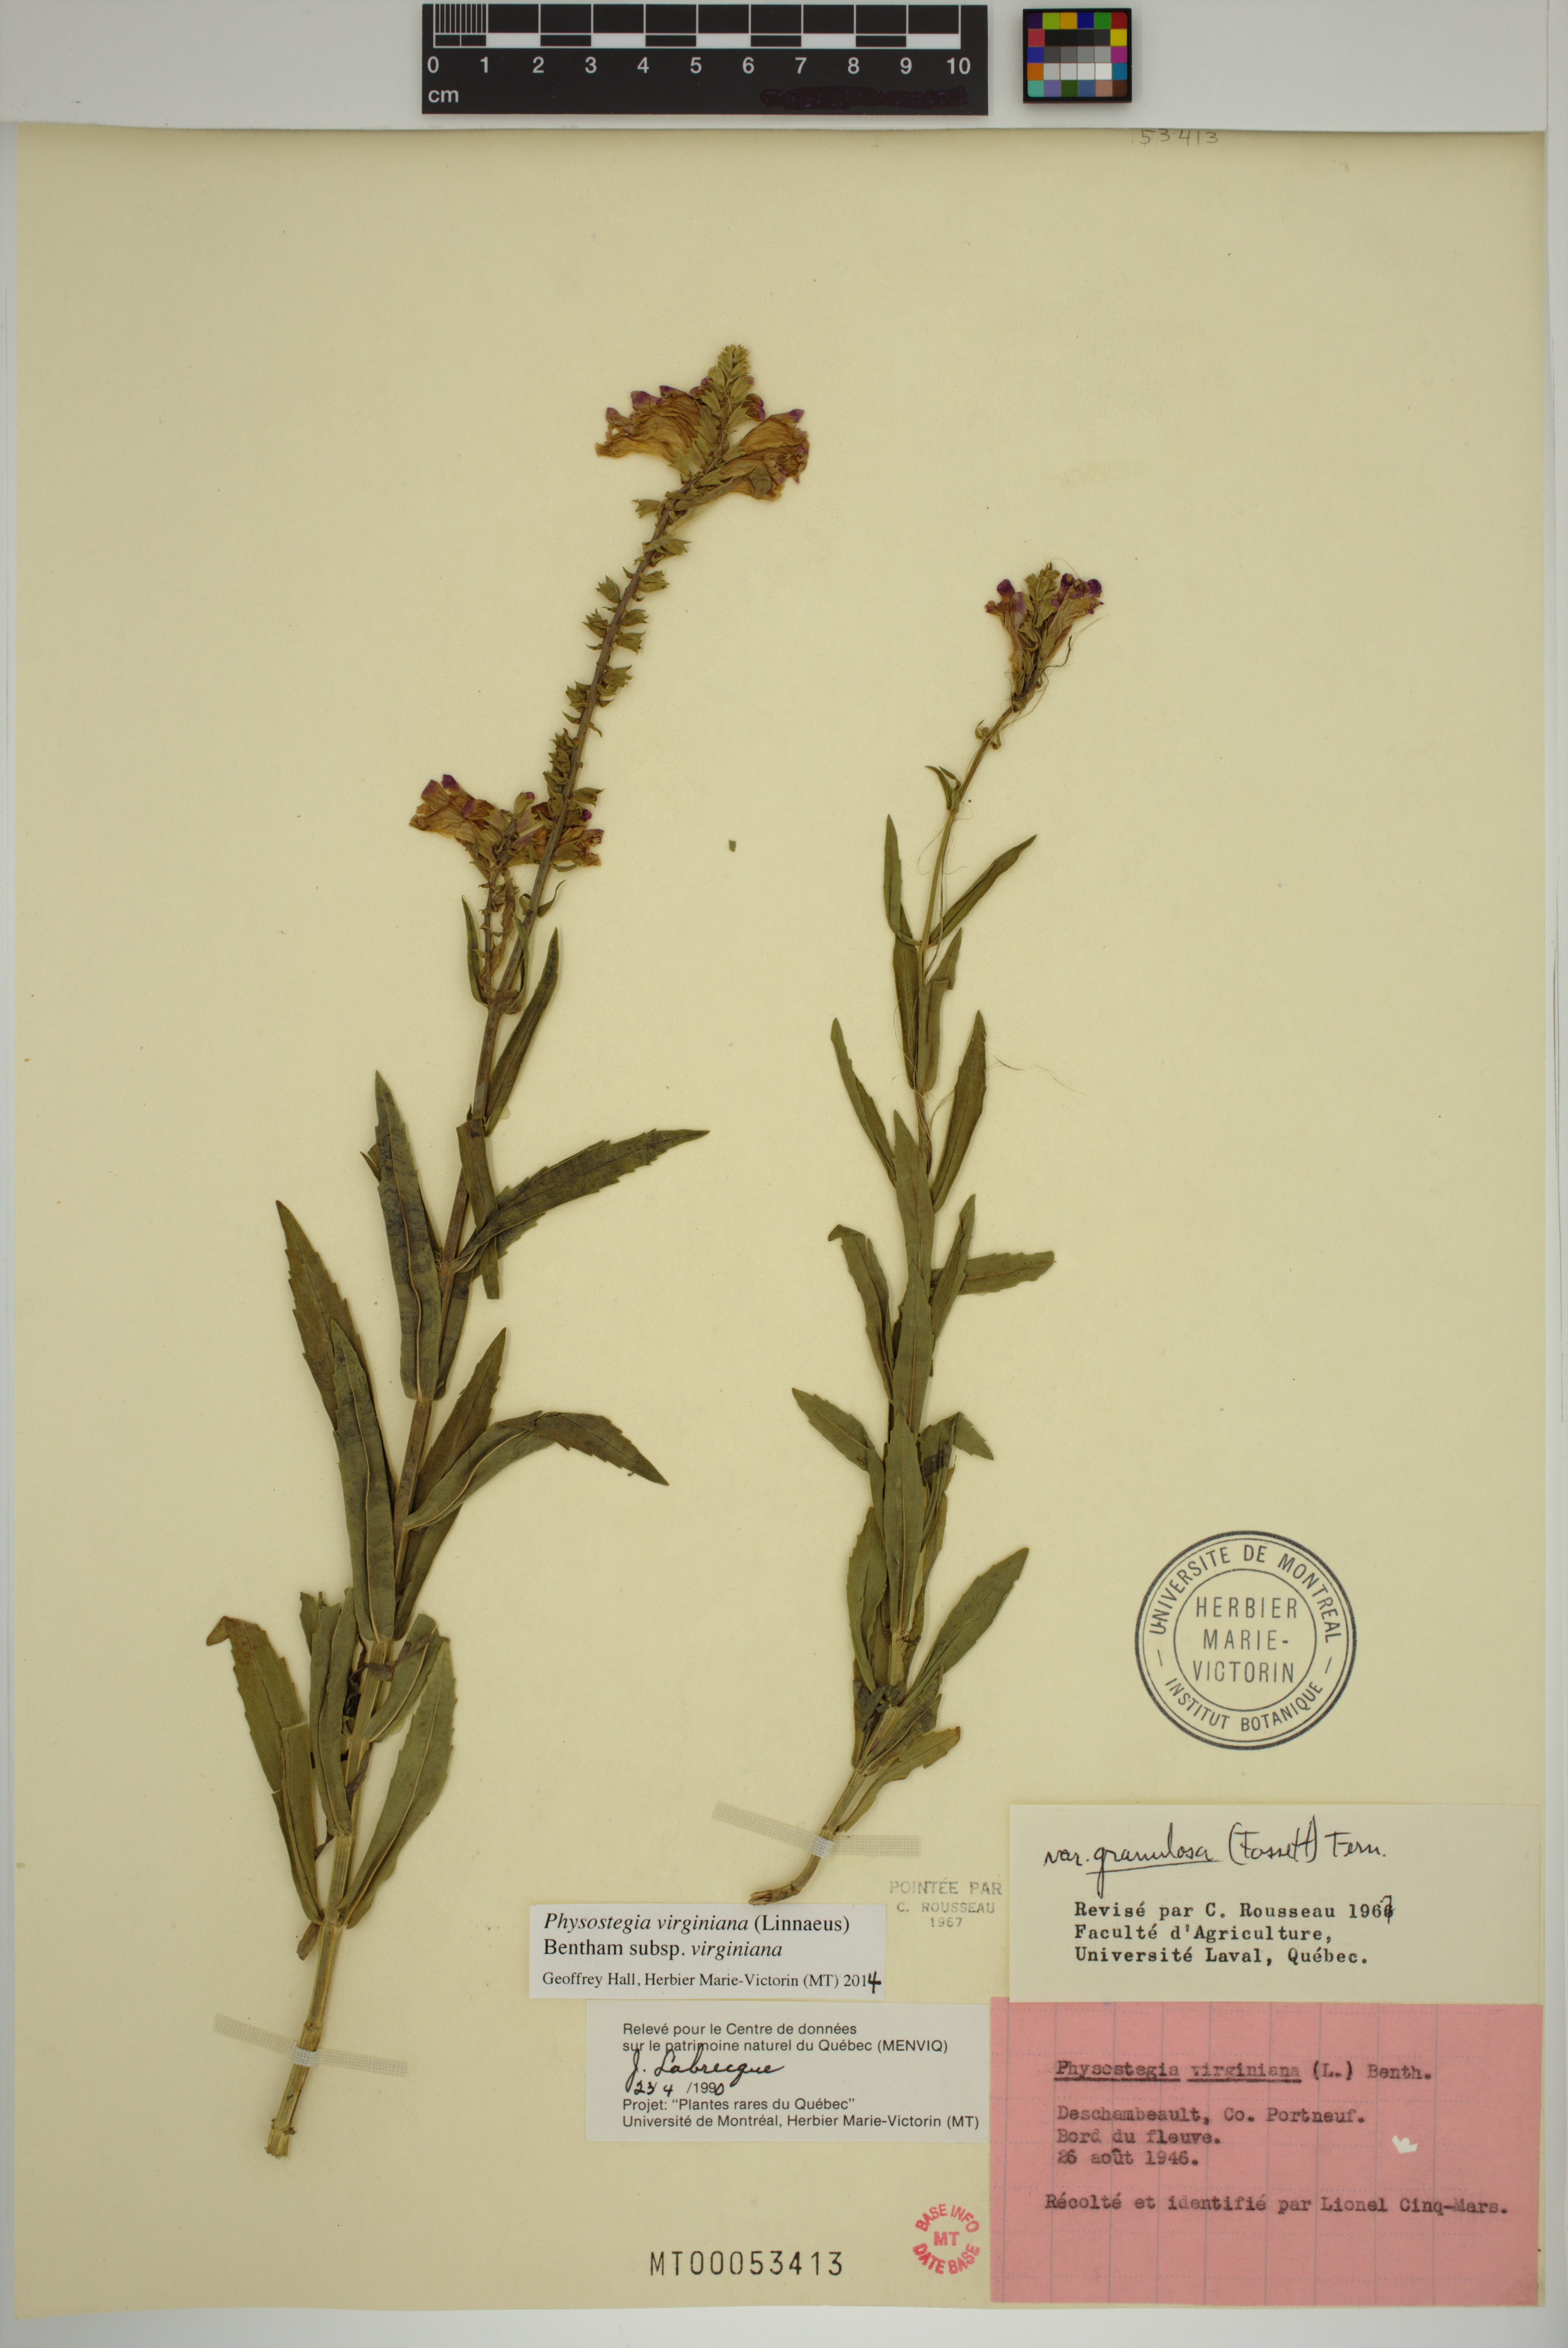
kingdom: Plantae
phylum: Tracheophyta
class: Magnoliopsida
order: Lamiales
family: Lamiaceae
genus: Physostegia
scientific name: Physostegia virginiana
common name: Obedient-plant
